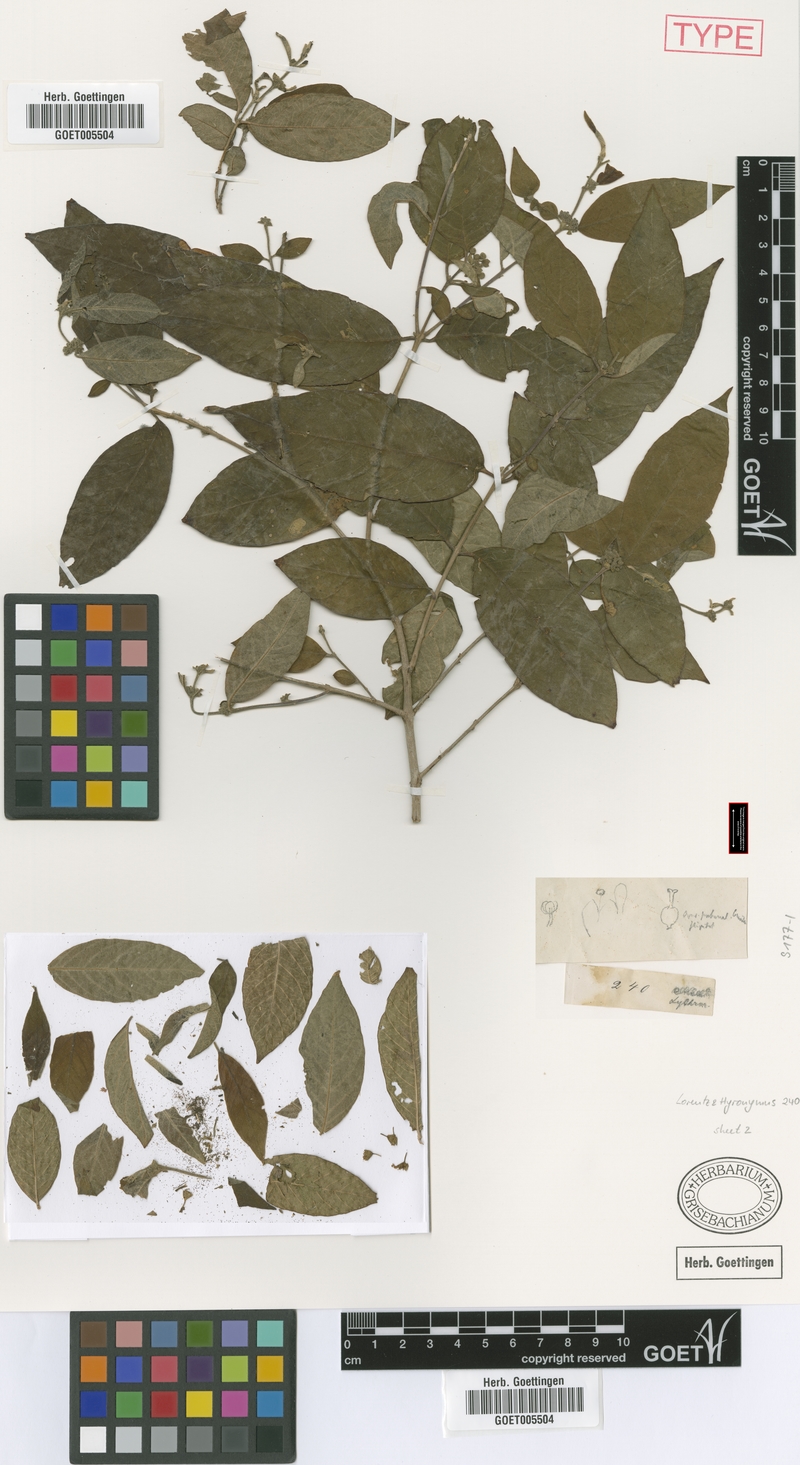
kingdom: Plantae
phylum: Tracheophyta
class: Magnoliopsida
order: Myrtales
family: Lythraceae
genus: Adenaria
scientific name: Adenaria floribunda
